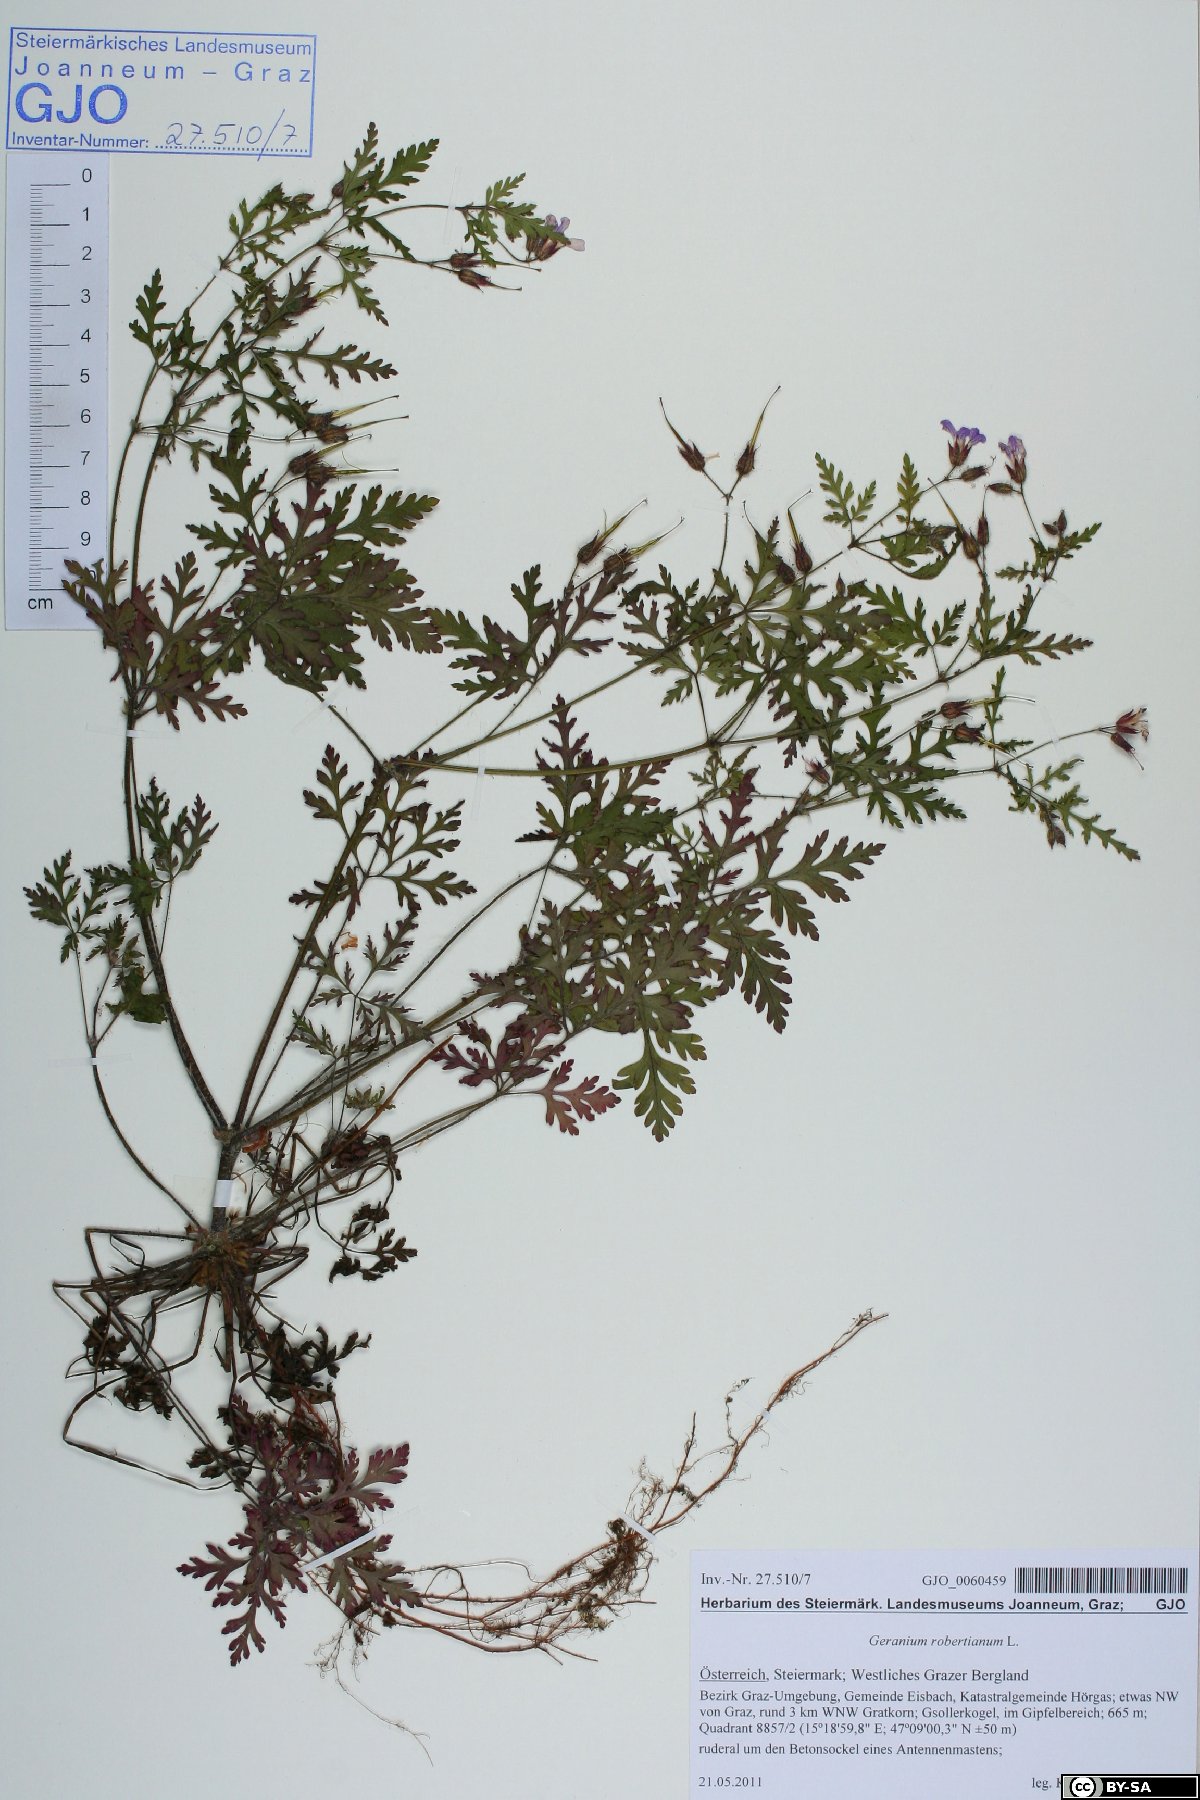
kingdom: Plantae
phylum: Tracheophyta
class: Magnoliopsida
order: Geraniales
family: Geraniaceae
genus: Geranium
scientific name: Geranium robertianum
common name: Herb-robert
